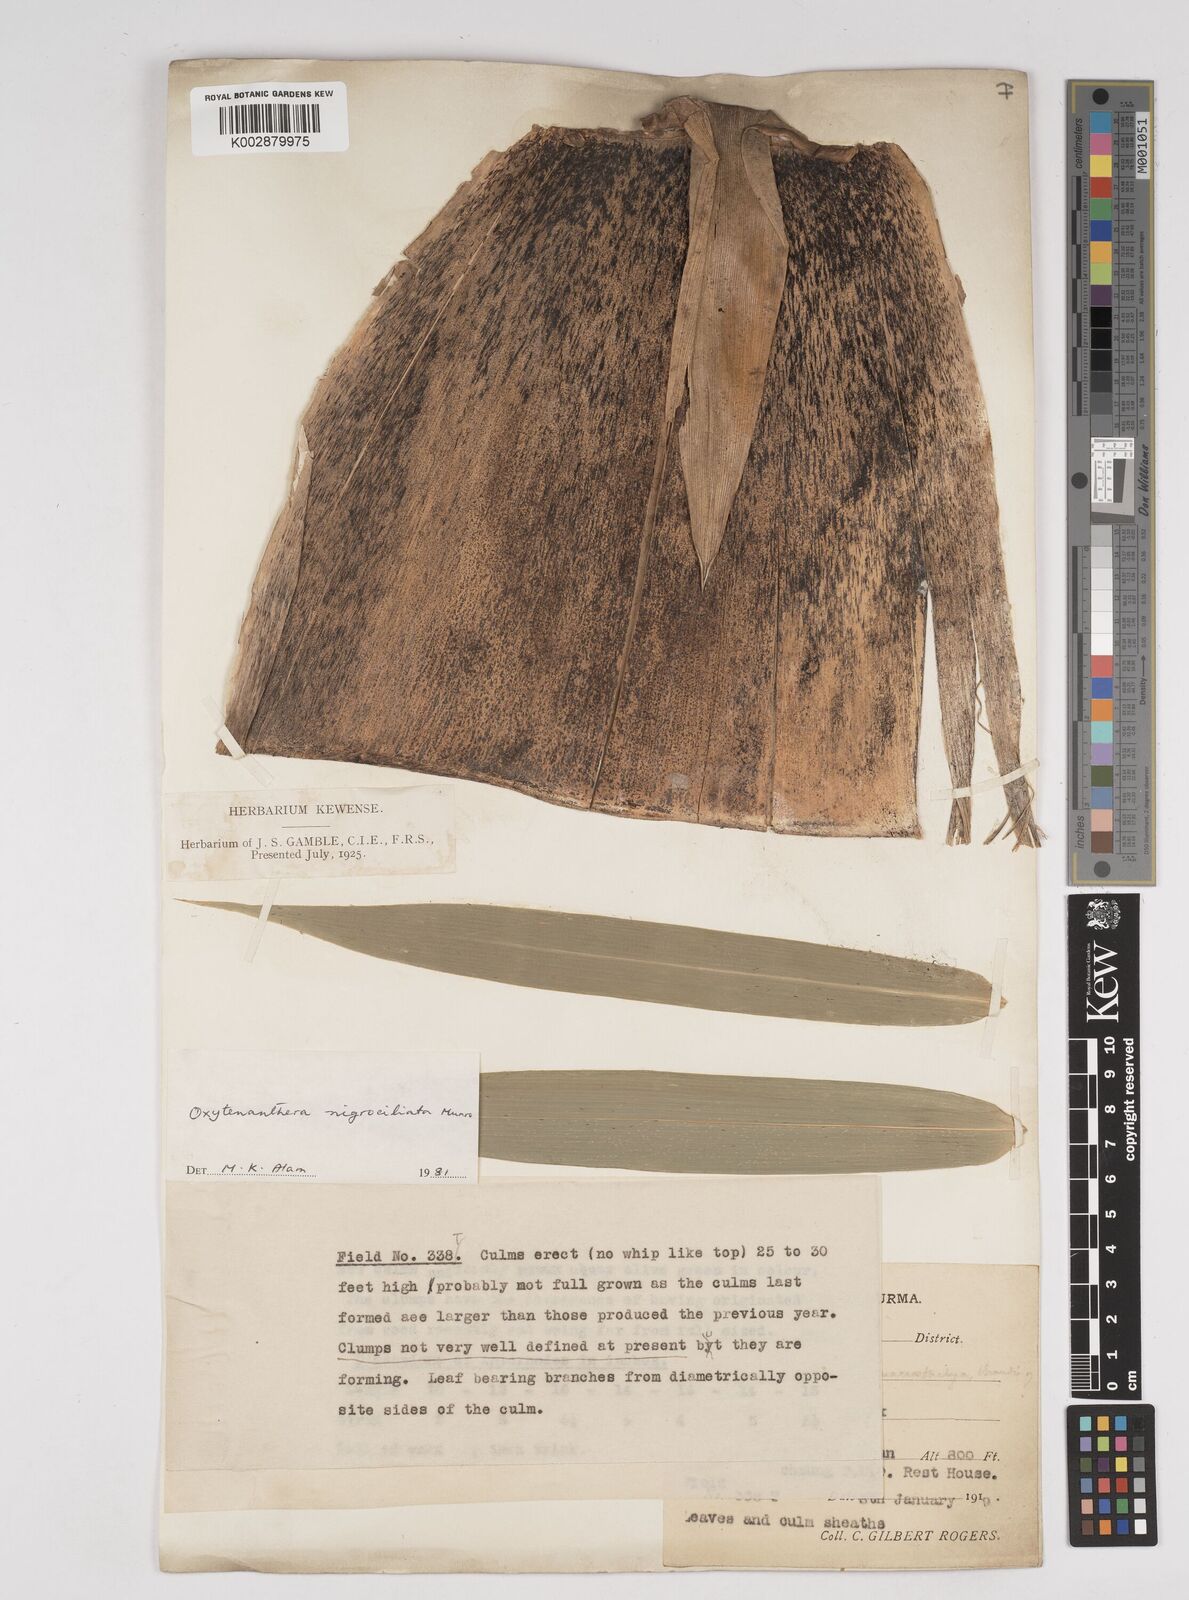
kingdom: Plantae
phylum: Tracheophyta
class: Liliopsida
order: Poales
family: Poaceae
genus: Gigantochloa
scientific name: Gigantochloa nigrociliata
